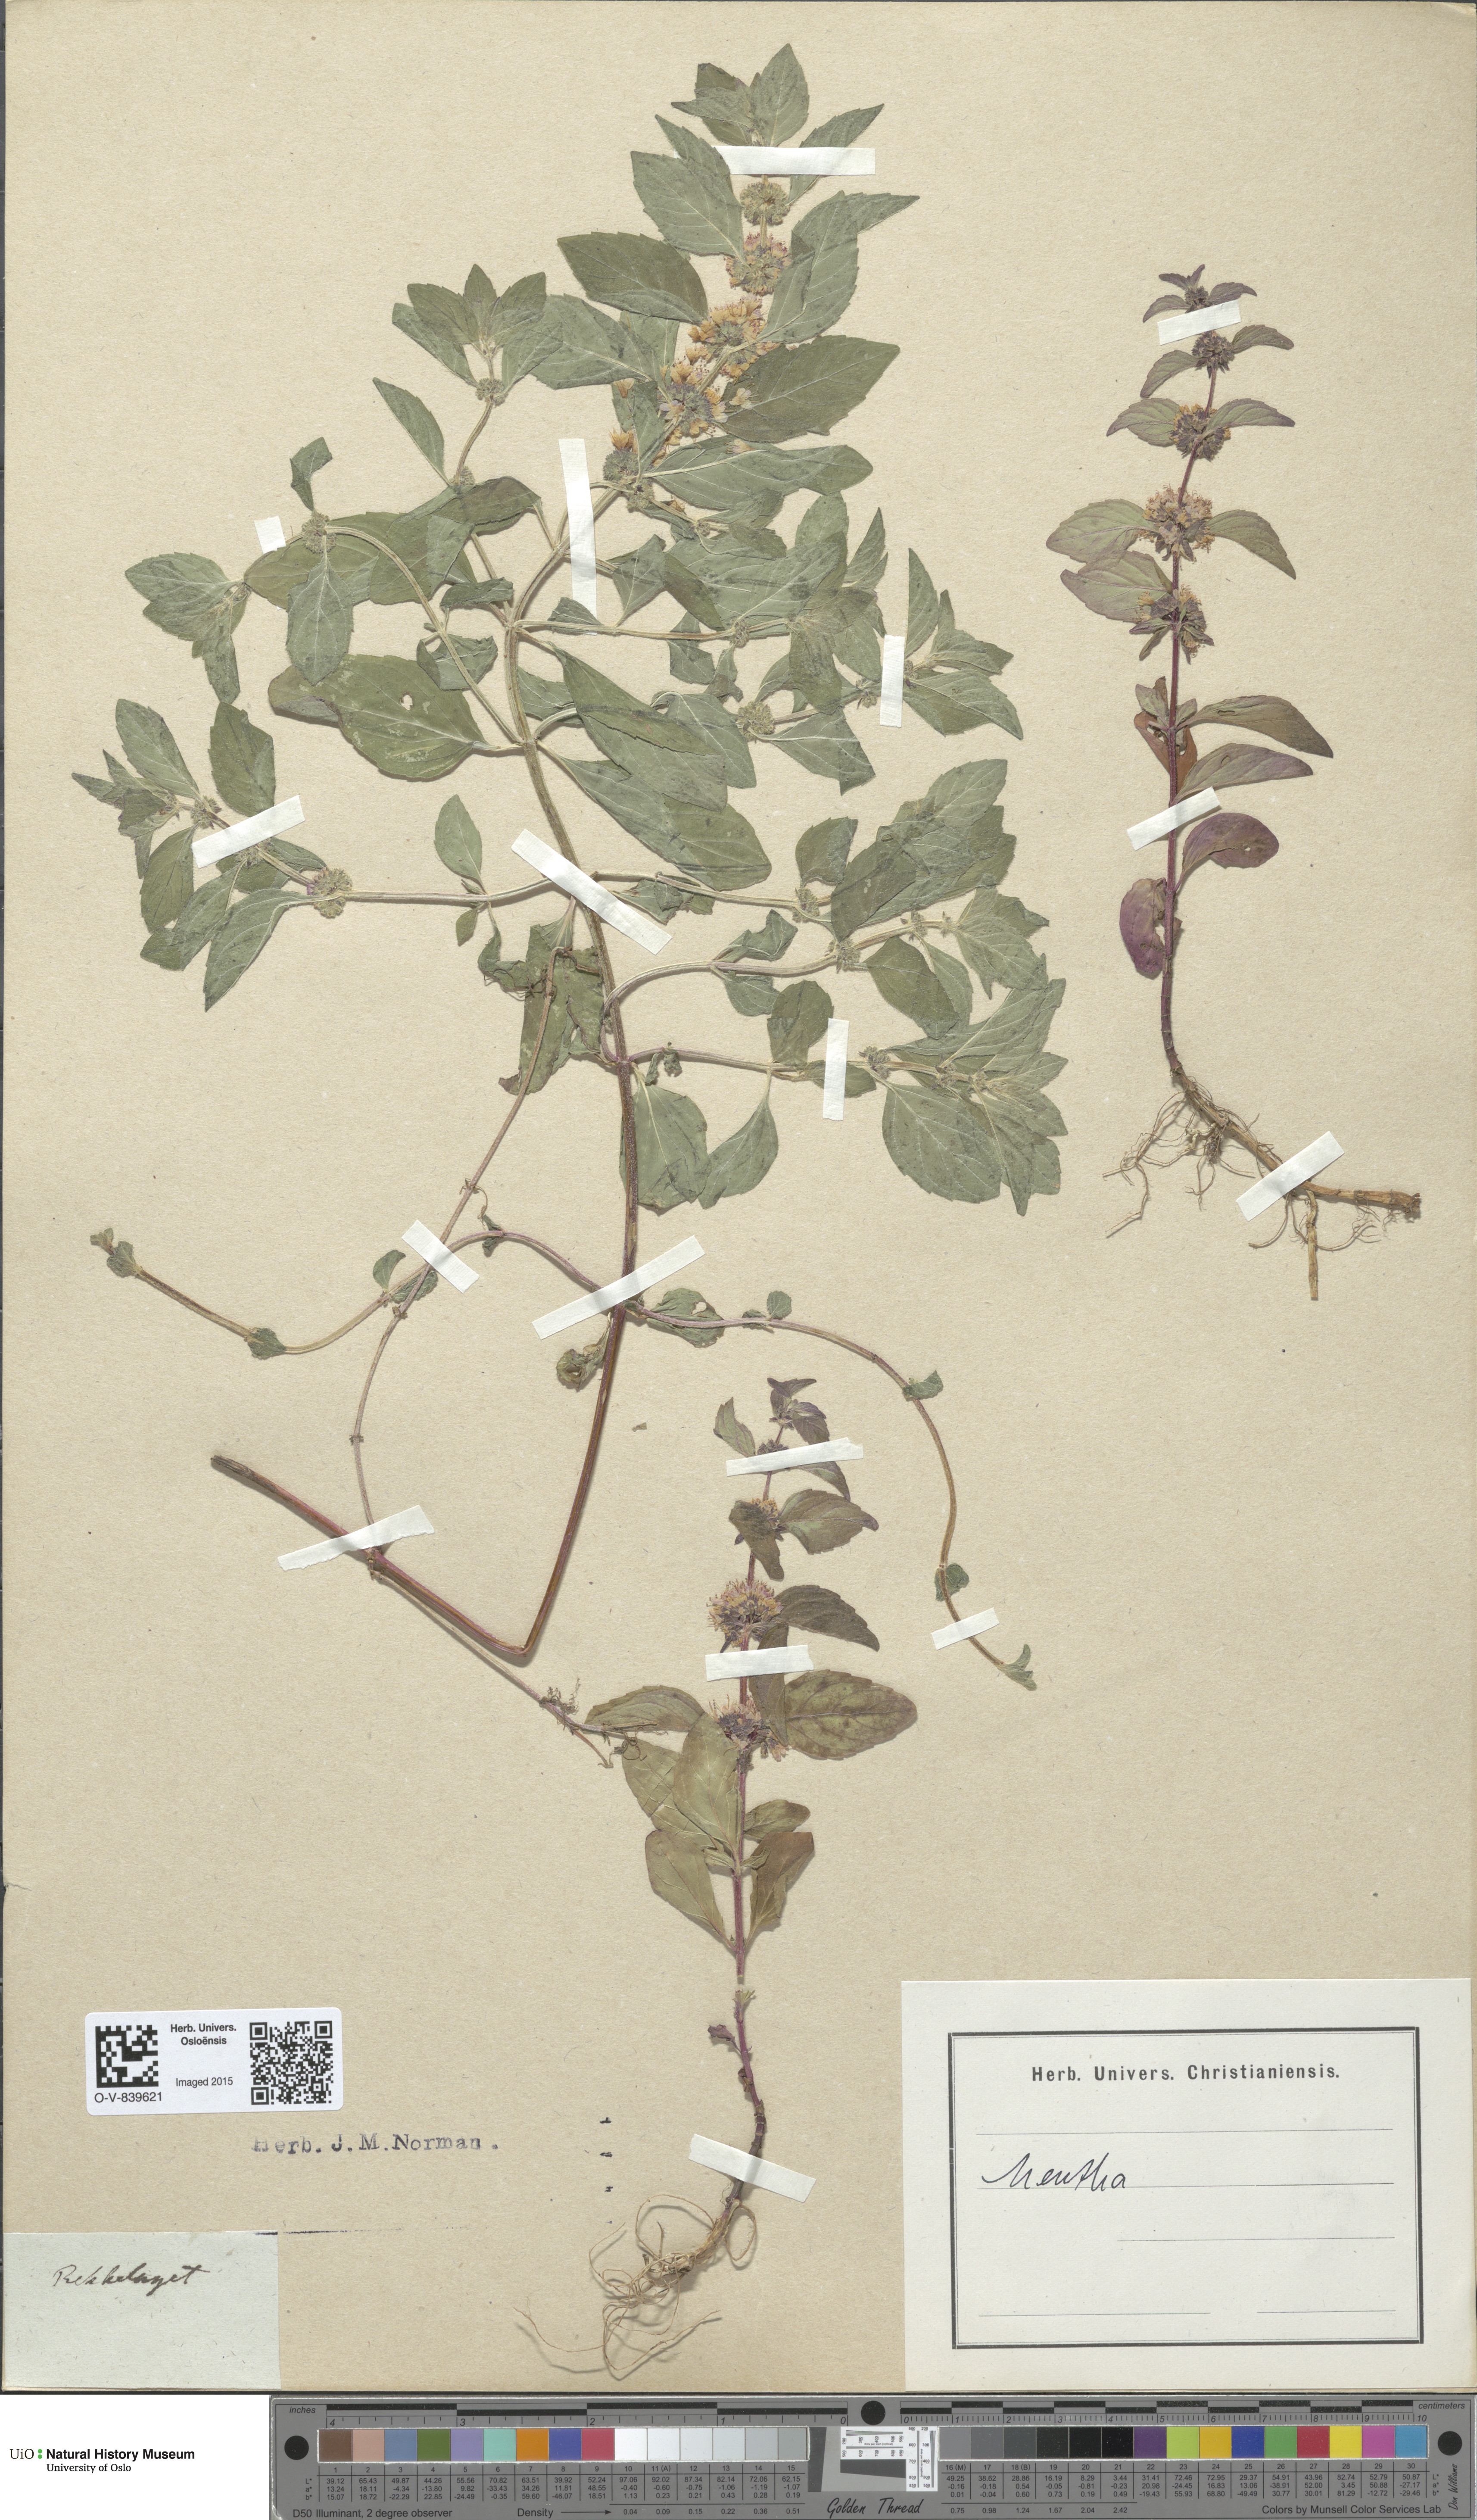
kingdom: Plantae
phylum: Tracheophyta
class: Magnoliopsida
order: Lamiales
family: Lamiaceae
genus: Mentha
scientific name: Mentha
